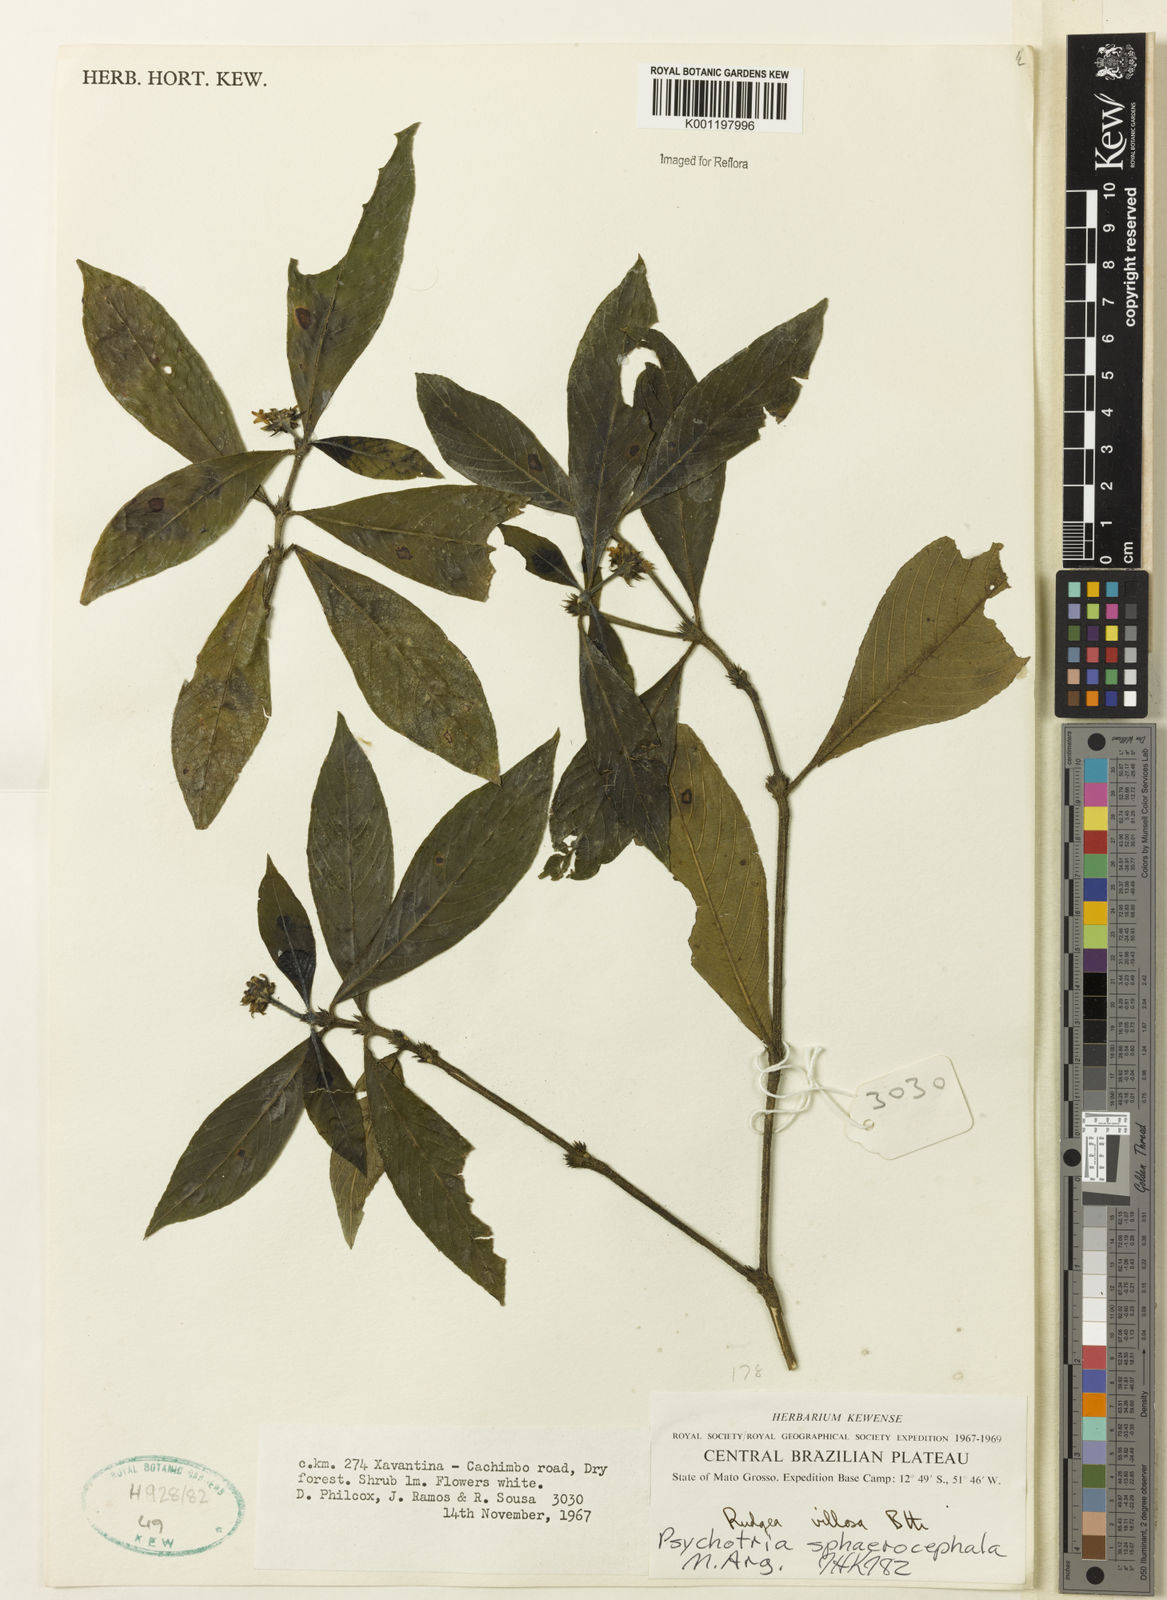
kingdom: Plantae
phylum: Tracheophyta
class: Magnoliopsida
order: Gentianales
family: Rubiaceae
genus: Psychotria
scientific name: Psychotria
